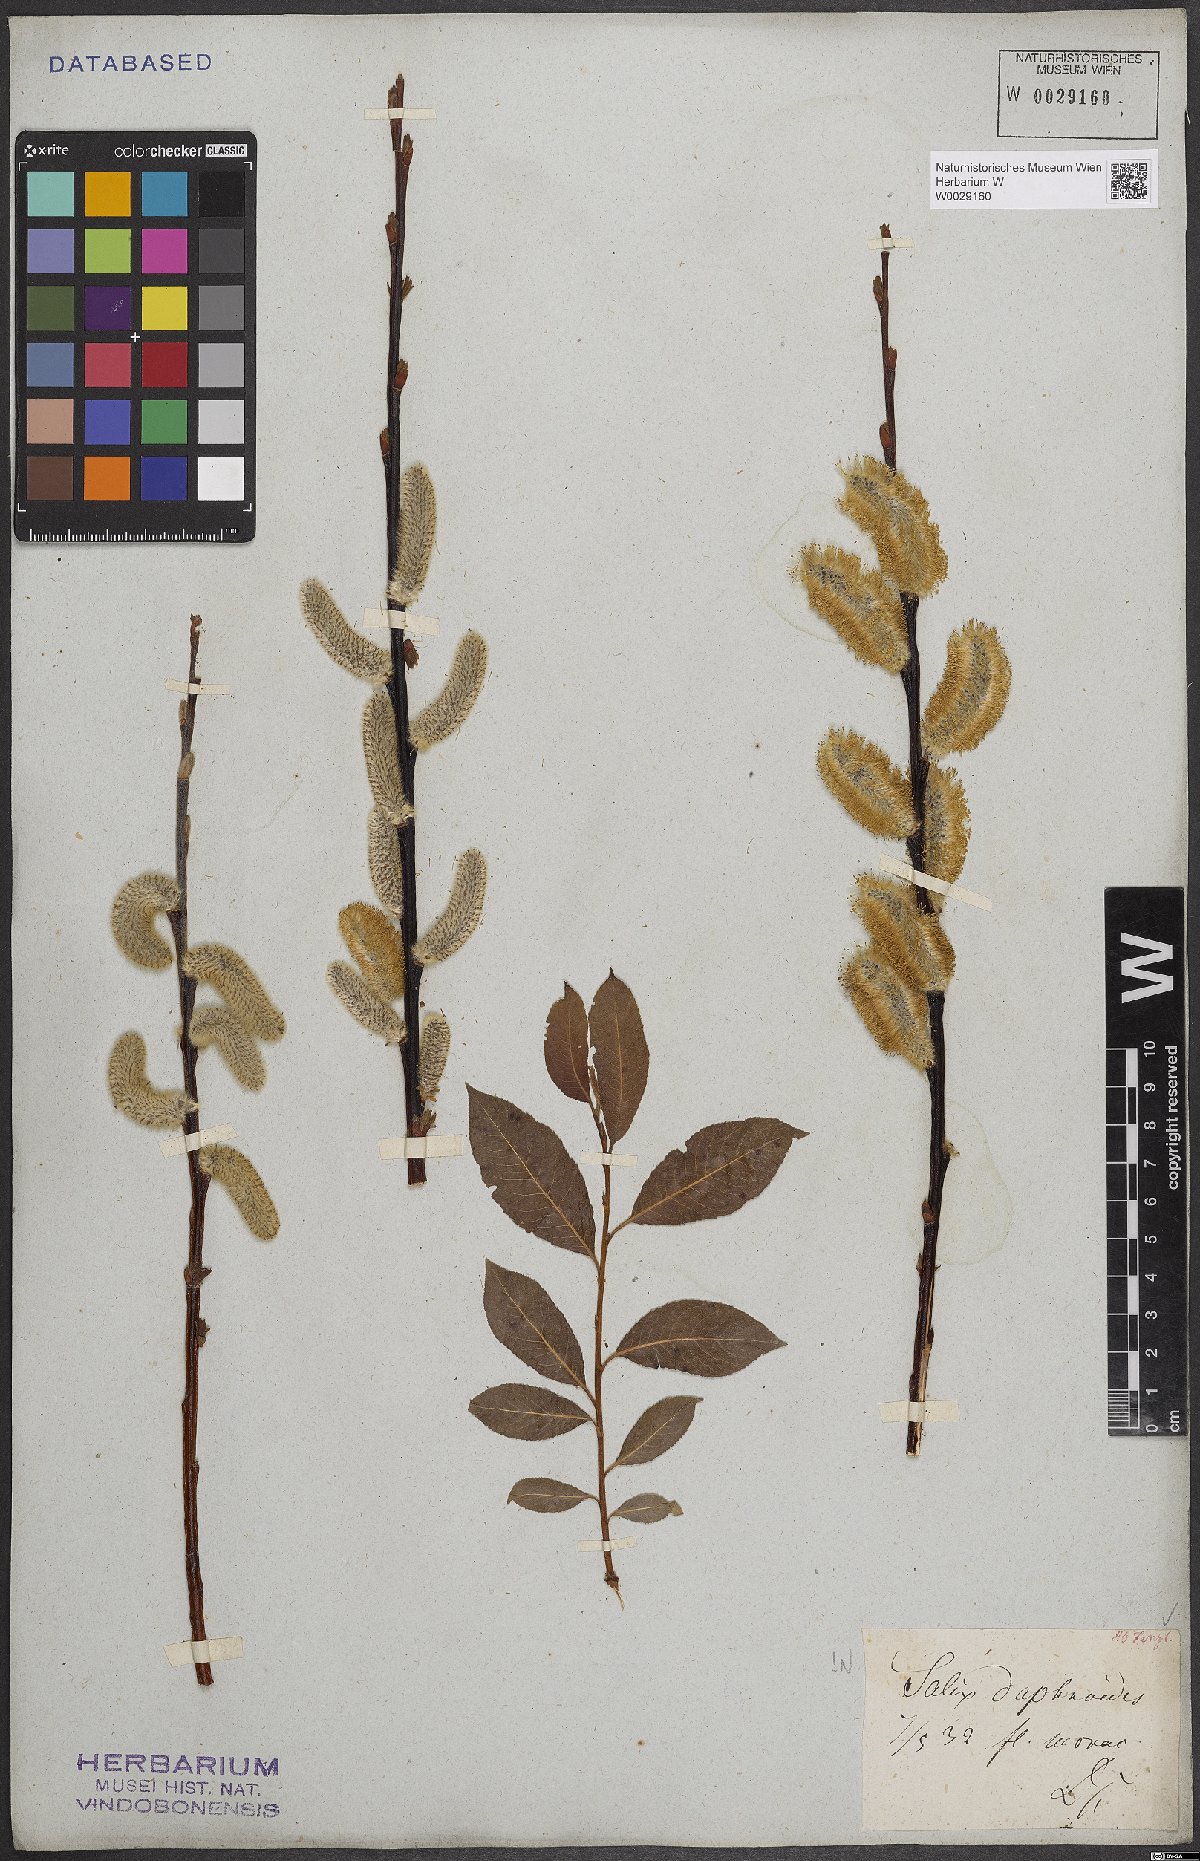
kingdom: Plantae
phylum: Tracheophyta
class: Magnoliopsida
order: Malpighiales
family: Salicaceae
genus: Salix
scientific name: Salix daphnoides
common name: European violet-willow
